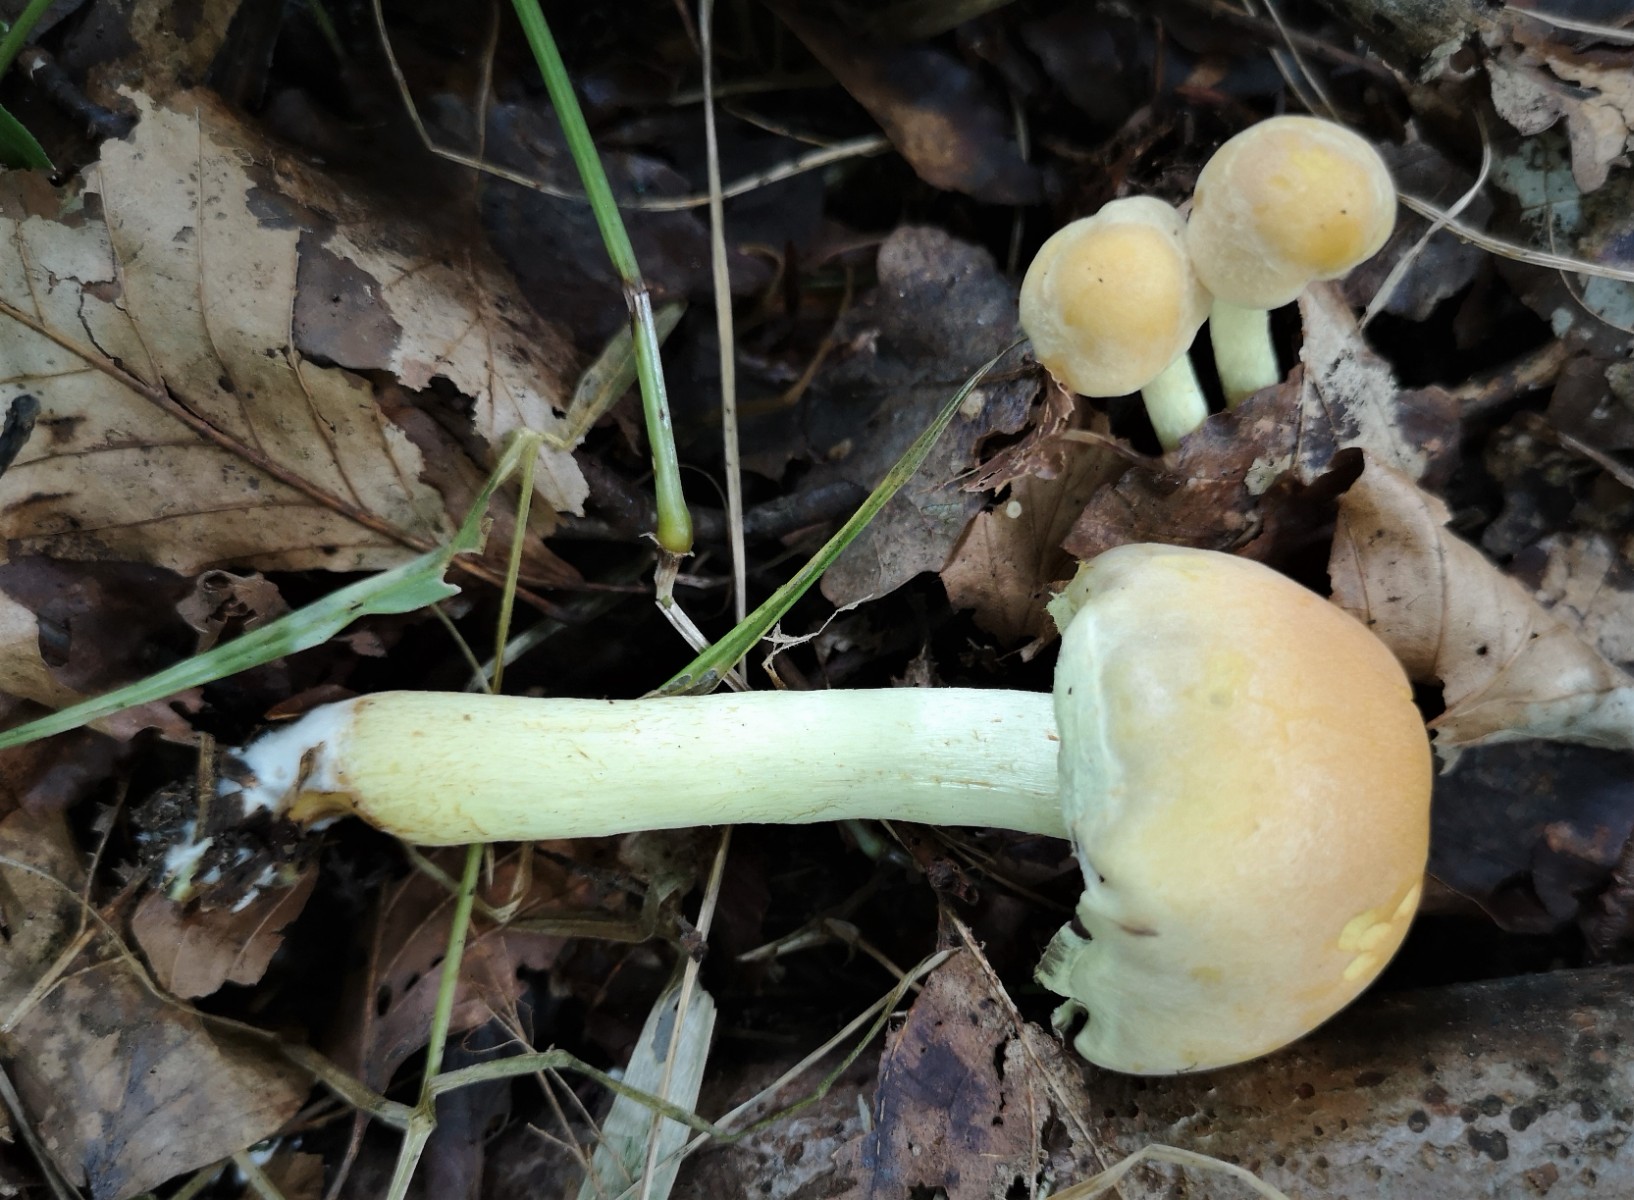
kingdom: Fungi
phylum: Basidiomycota
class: Agaricomycetes
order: Agaricales
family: Strophariaceae
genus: Hypholoma
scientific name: Hypholoma fasciculare
